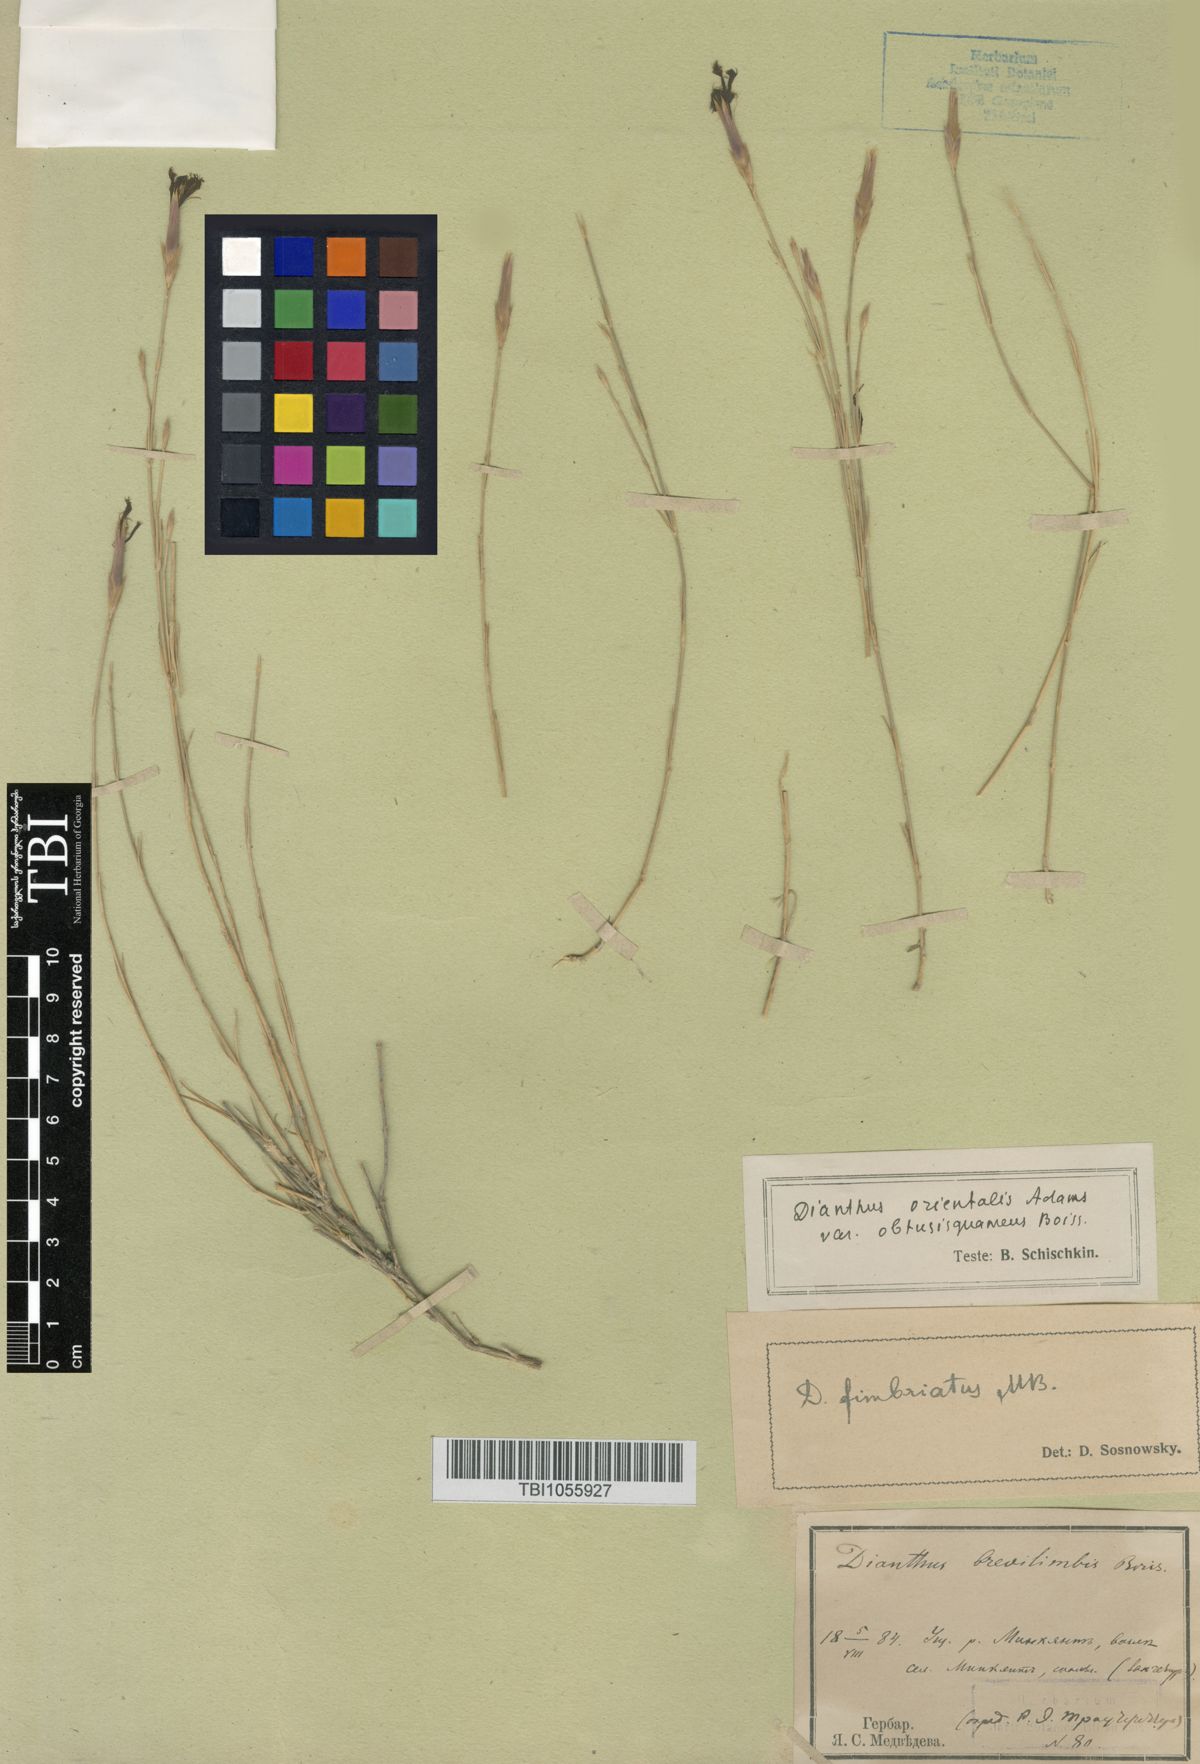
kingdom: Plantae
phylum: Tracheophyta
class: Magnoliopsida
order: Caryophyllales
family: Caryophyllaceae
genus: Dianthus
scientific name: Dianthus orientalis
